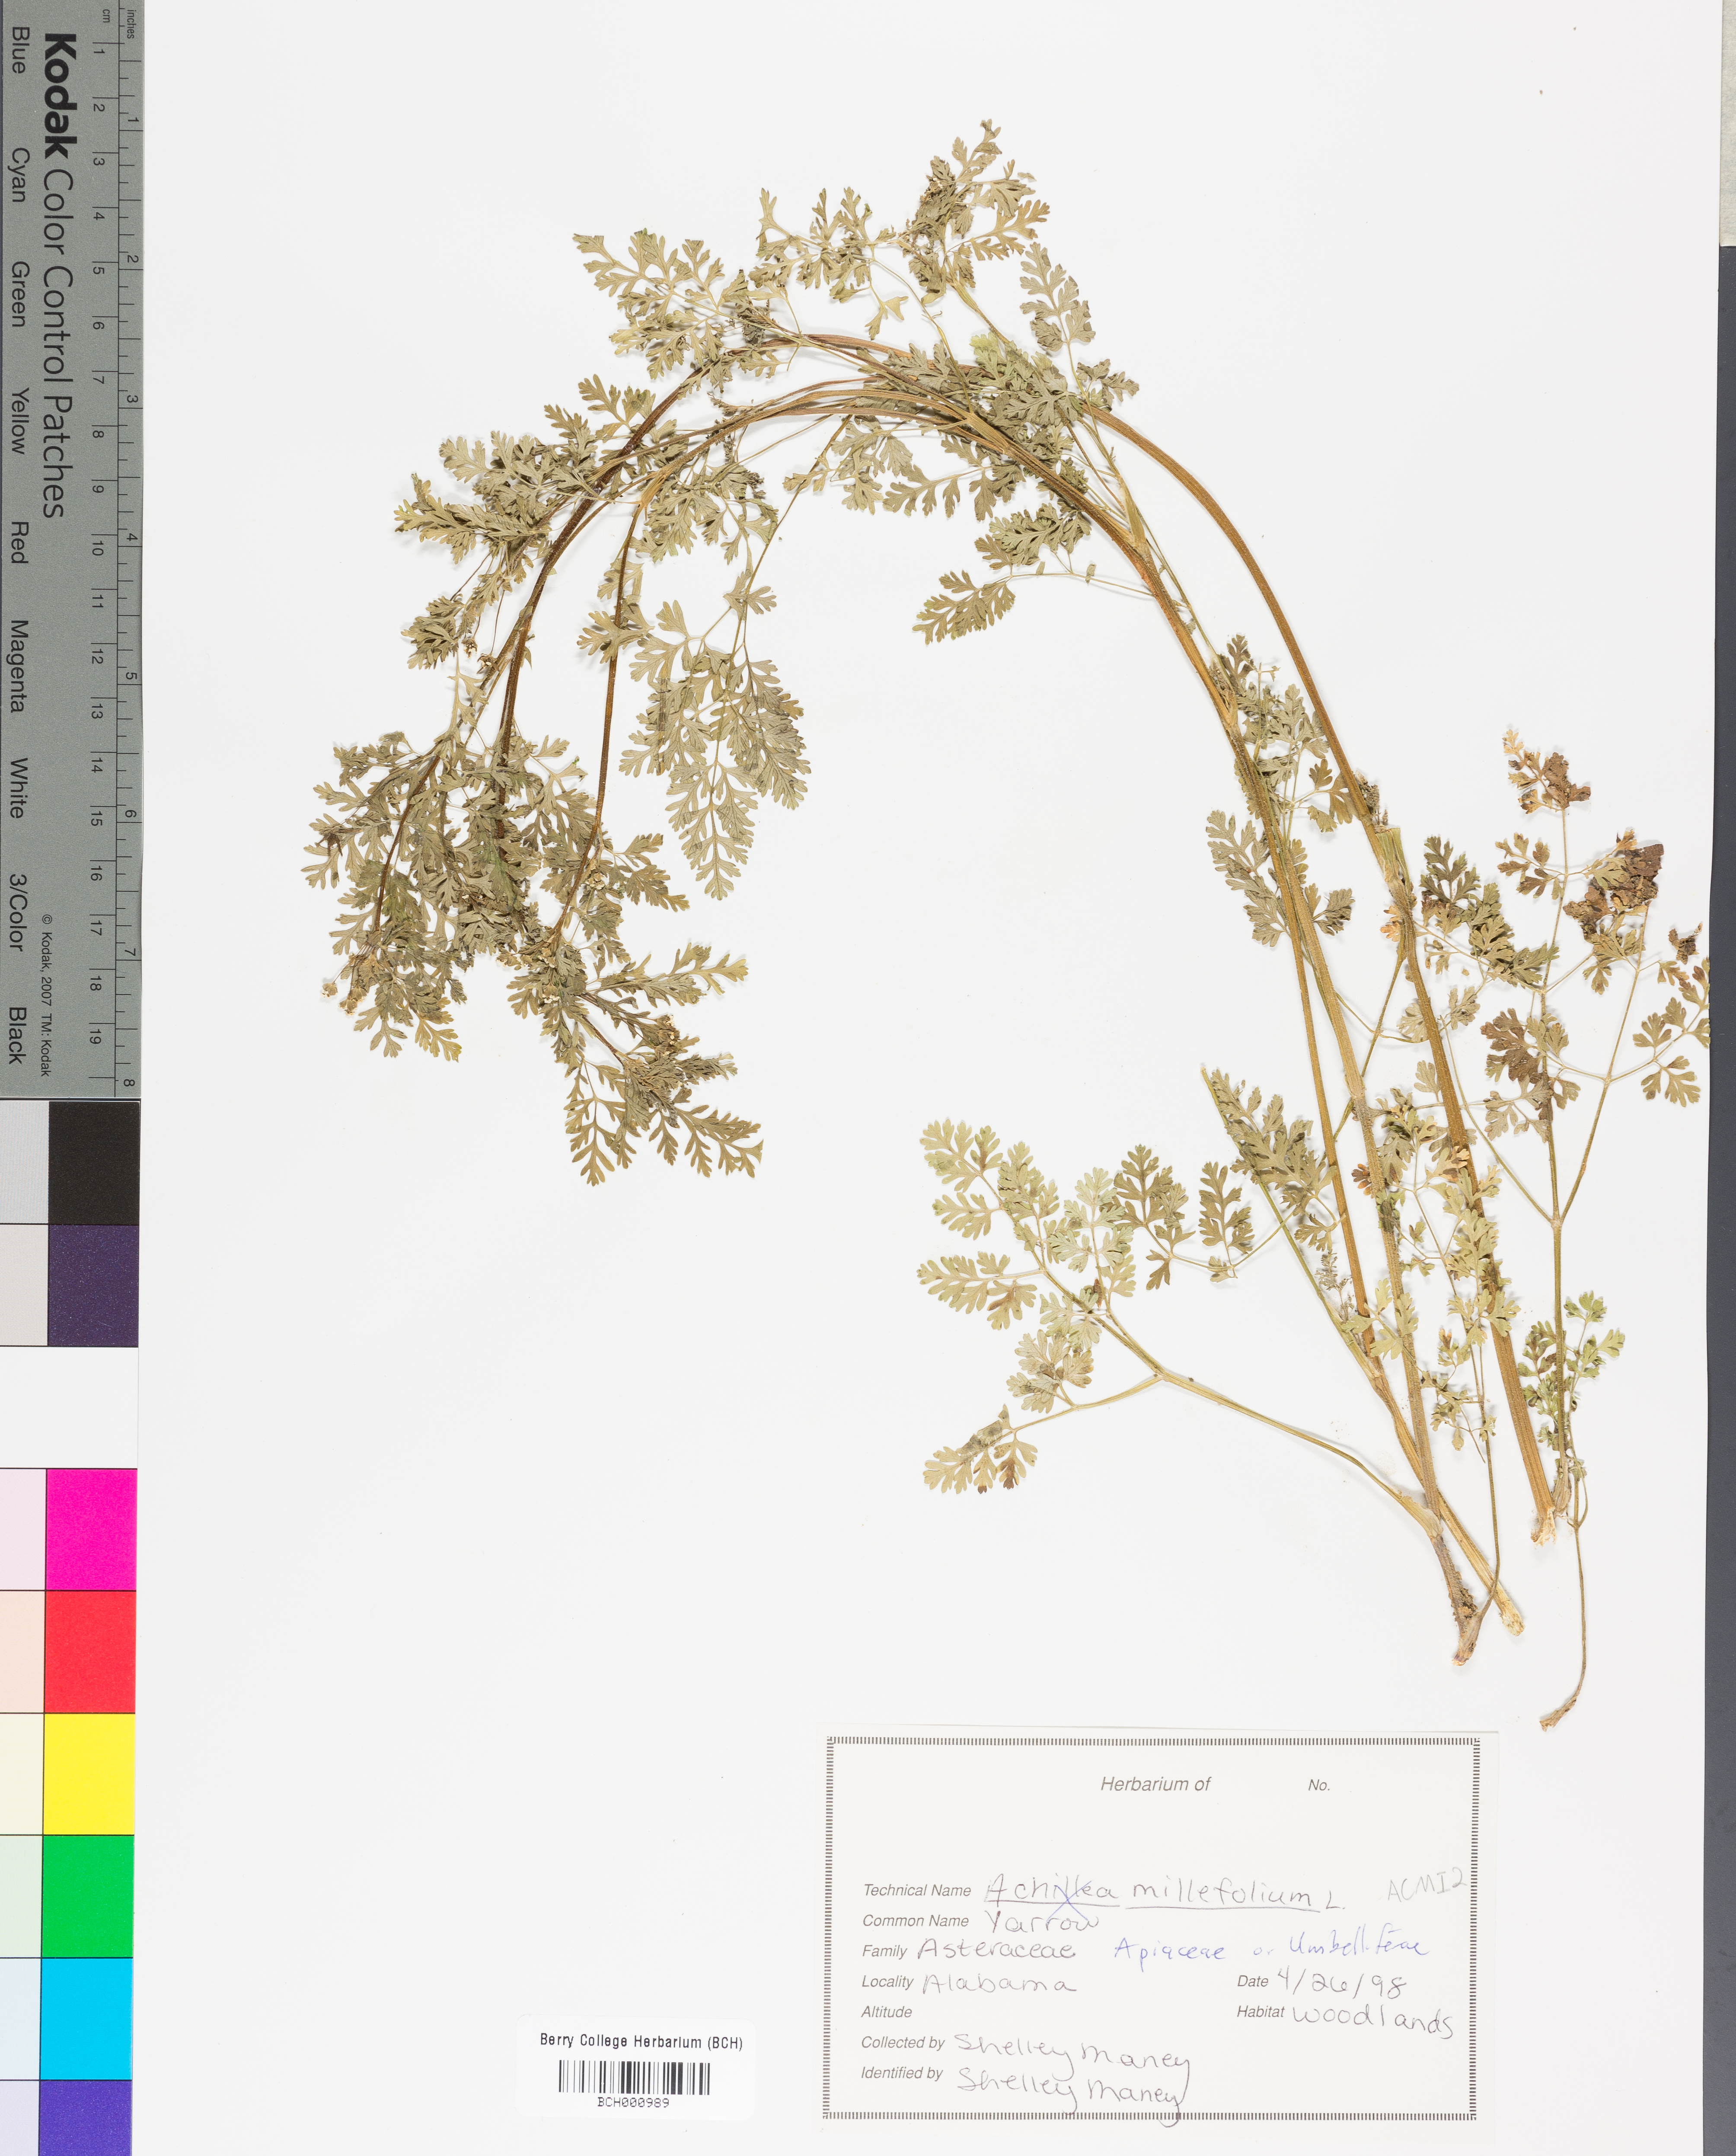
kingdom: Plantae
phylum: Tracheophyta
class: Magnoliopsida
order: Asterales
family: Asteraceae
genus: Achillea
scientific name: Achillea millefolium
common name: Yarrow
